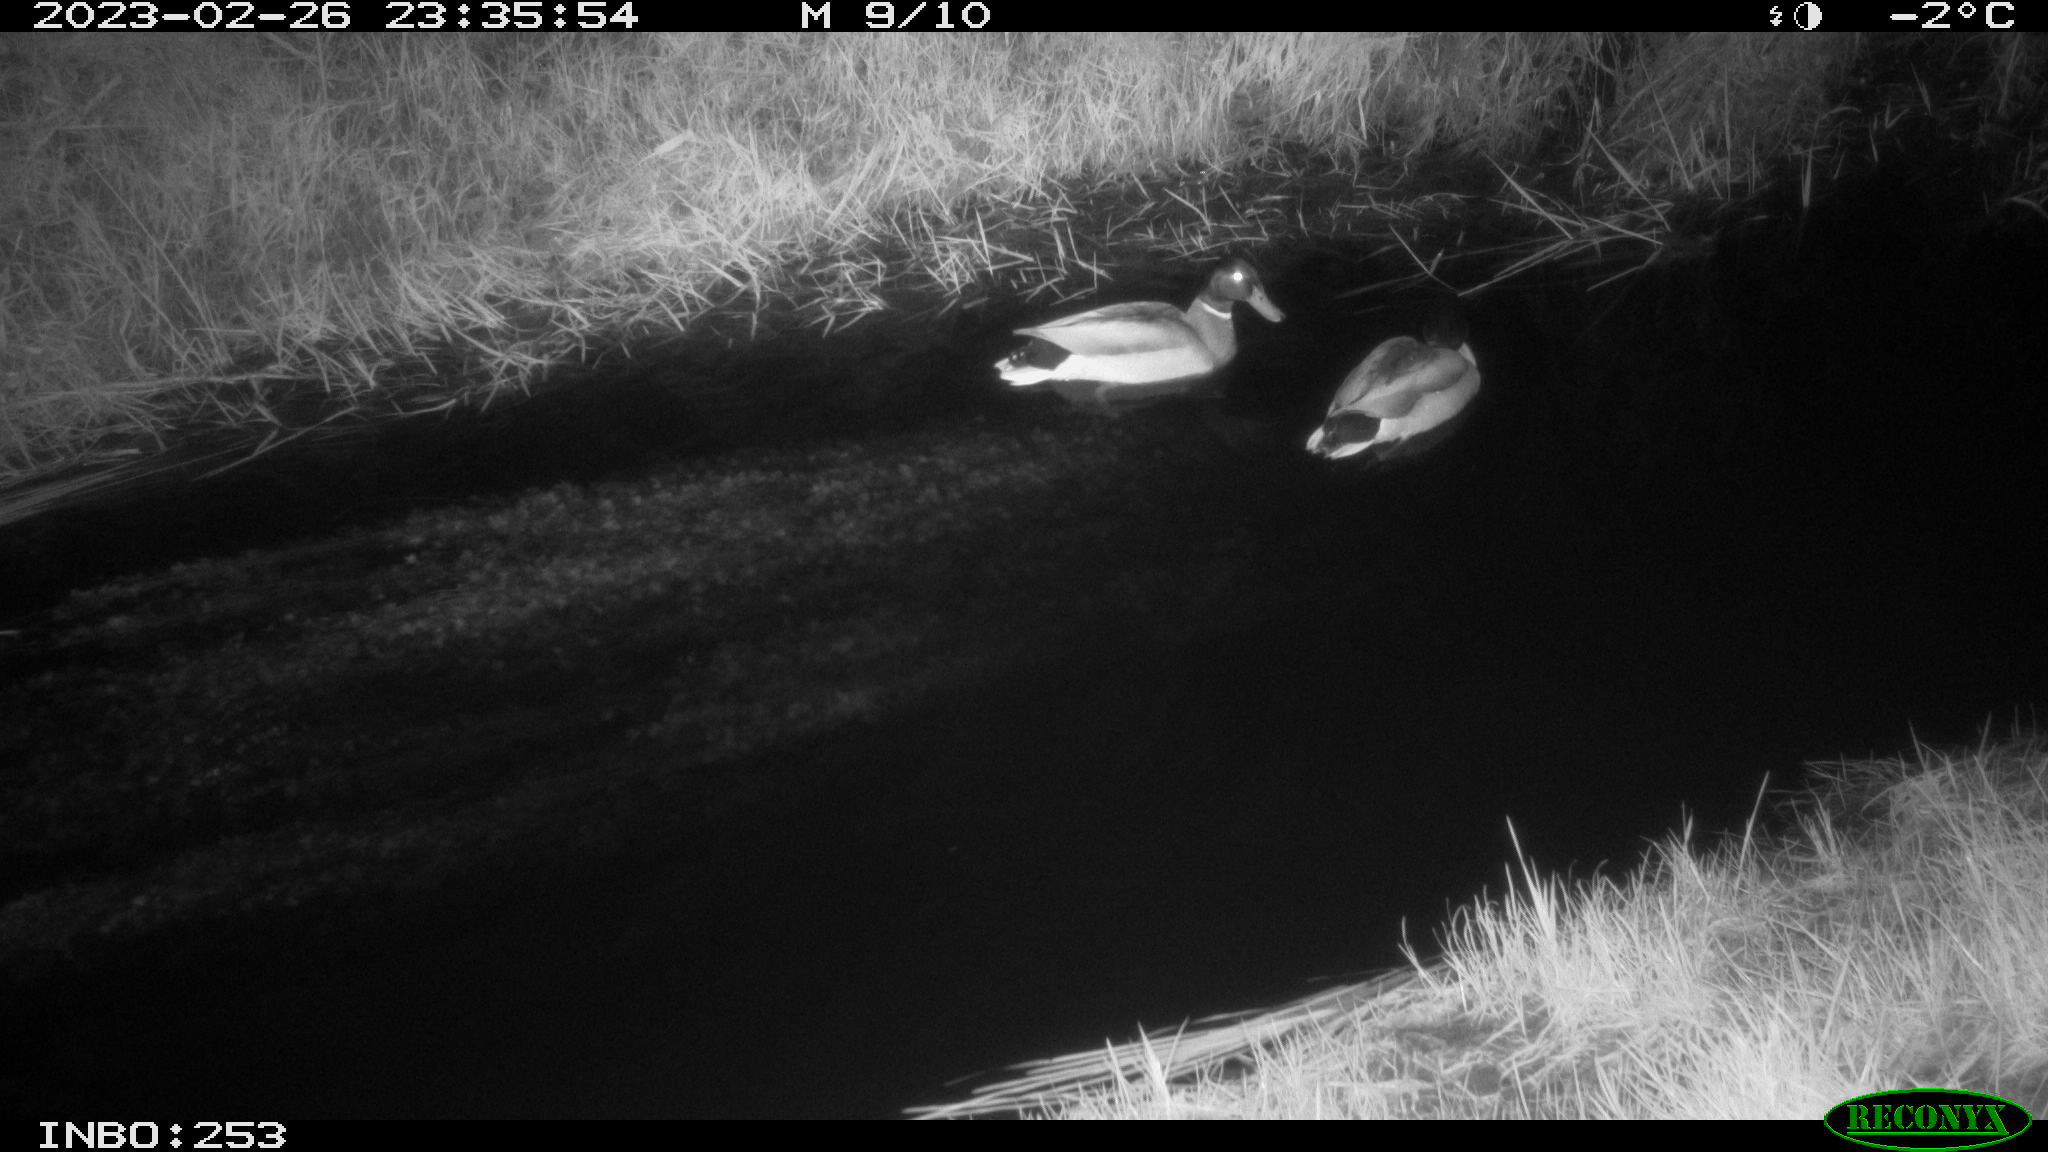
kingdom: Animalia
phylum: Chordata
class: Aves
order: Anseriformes
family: Anatidae
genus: Anas
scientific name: Anas
